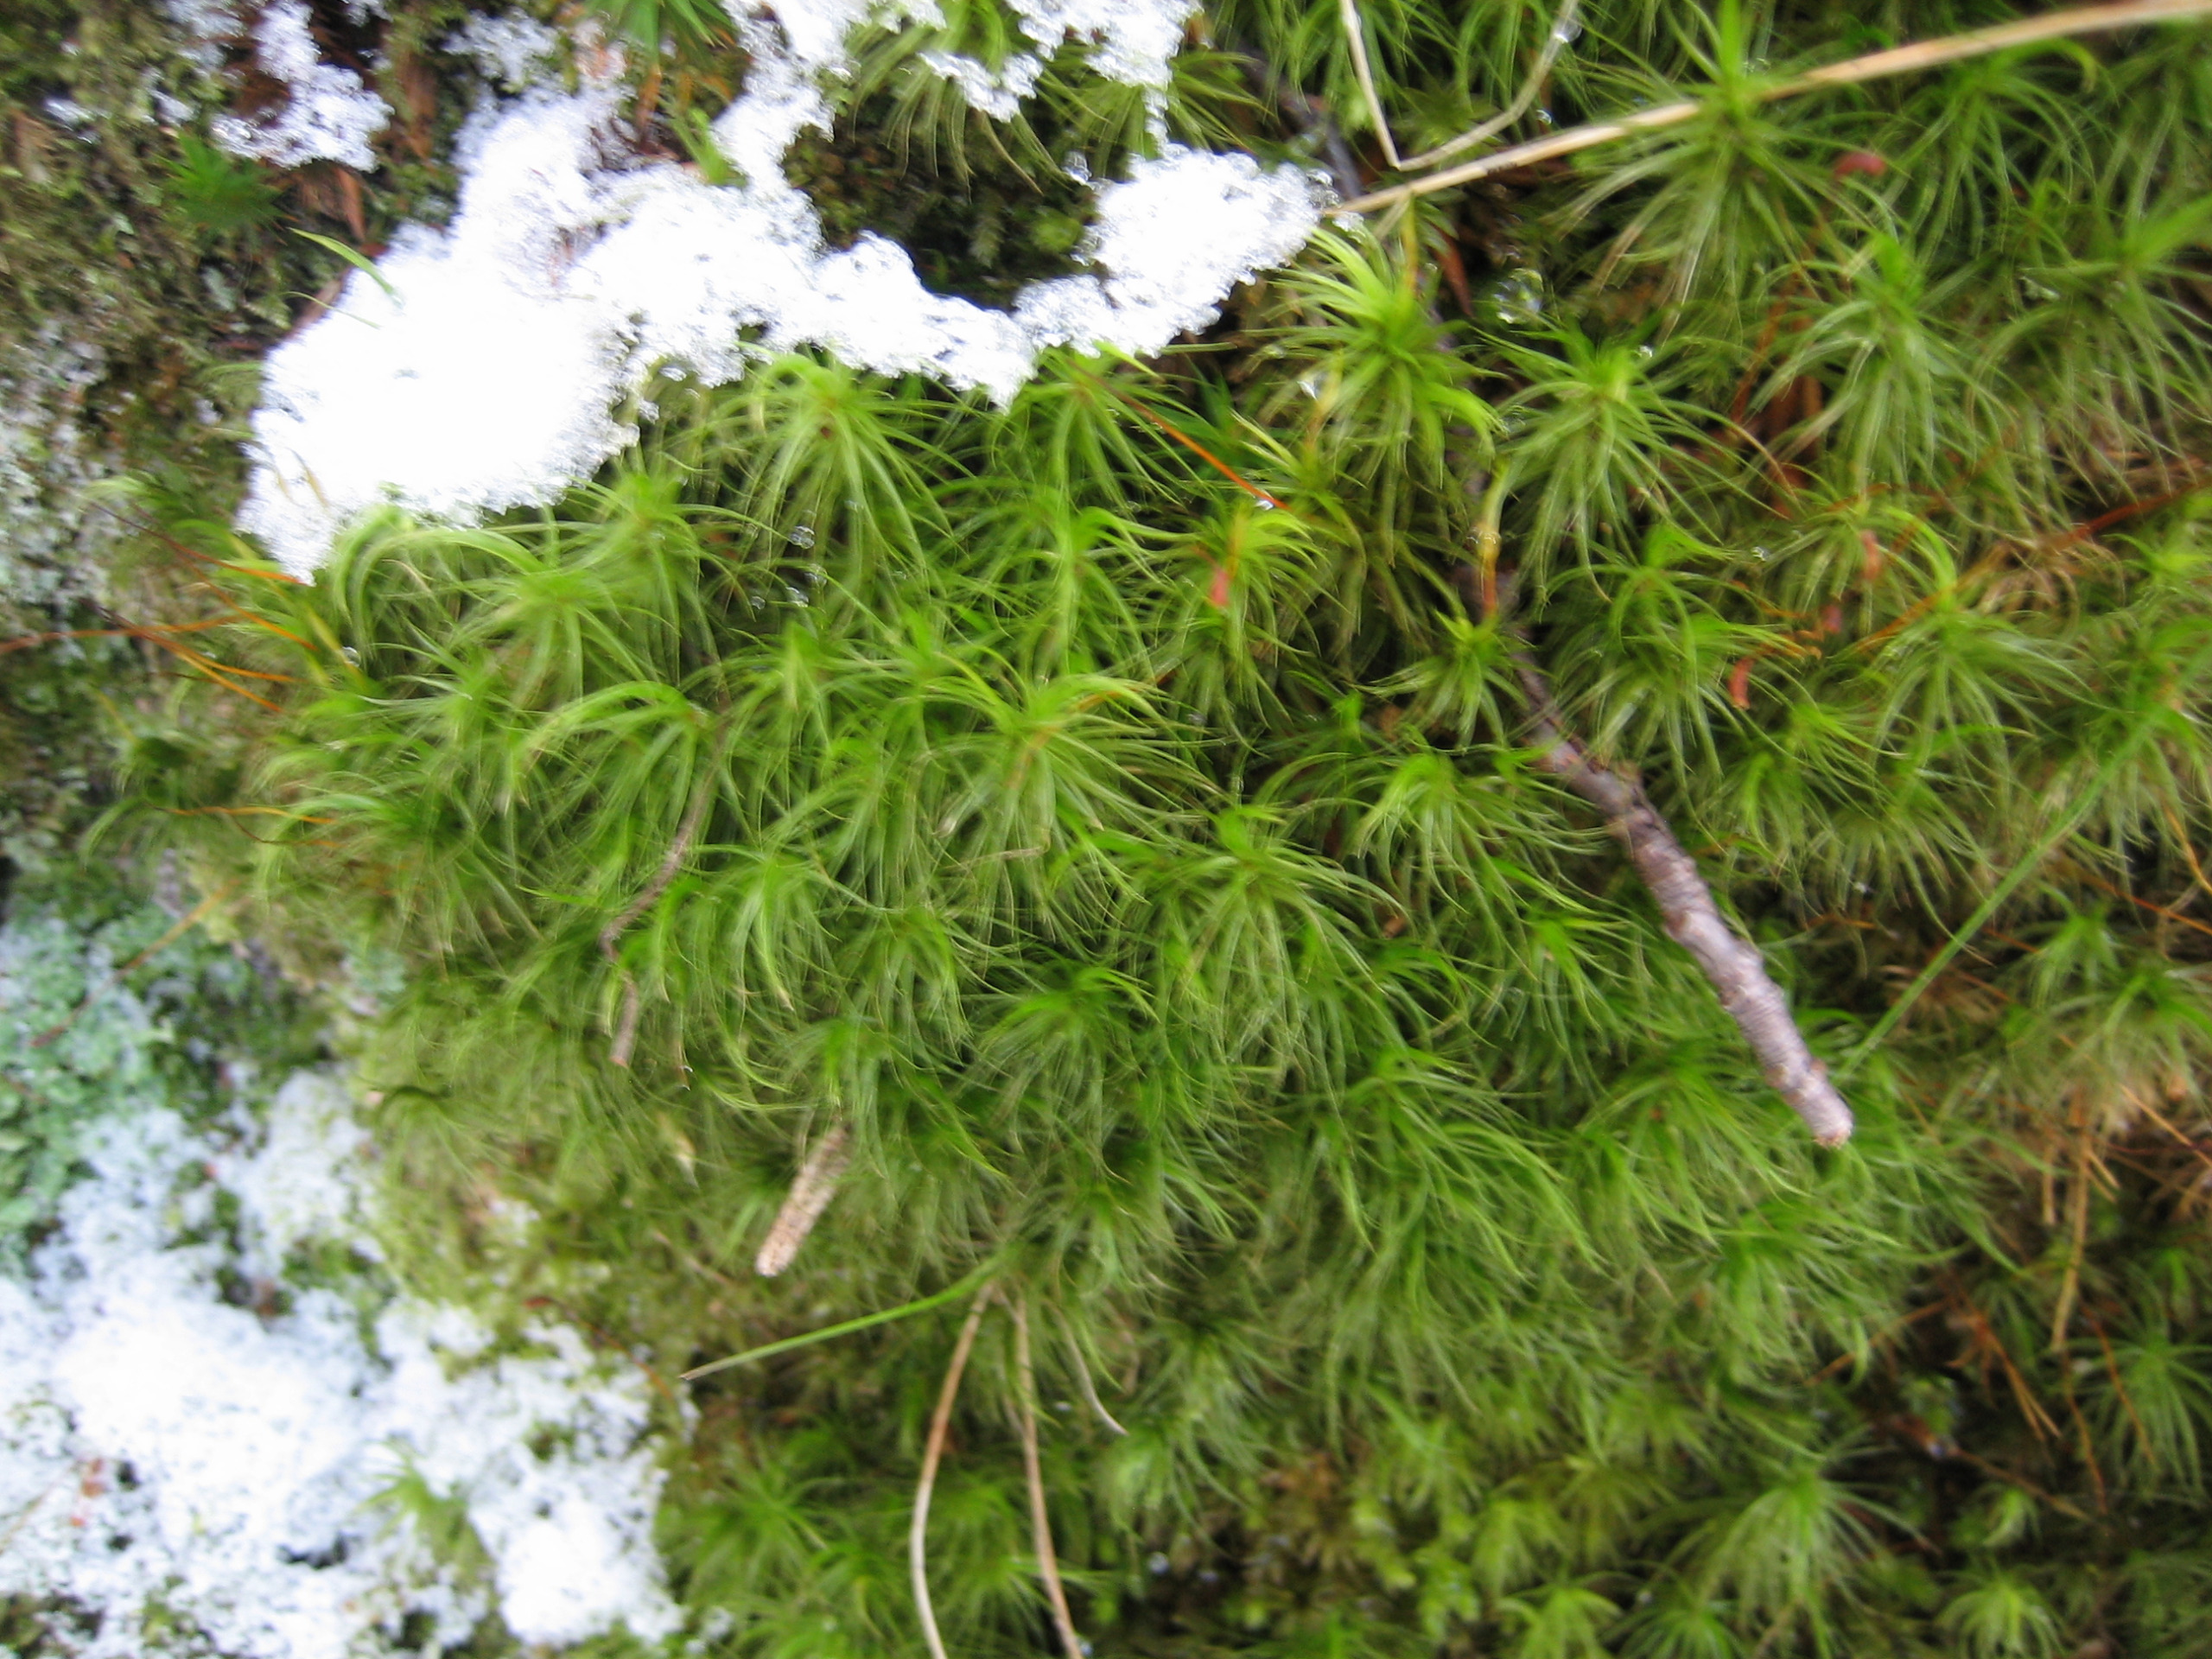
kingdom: Plantae
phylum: Bryophyta
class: Bryopsida
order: Dicranales
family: Dicranaceae
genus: Dicranum
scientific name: Dicranum majus
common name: Stor kløvtand
